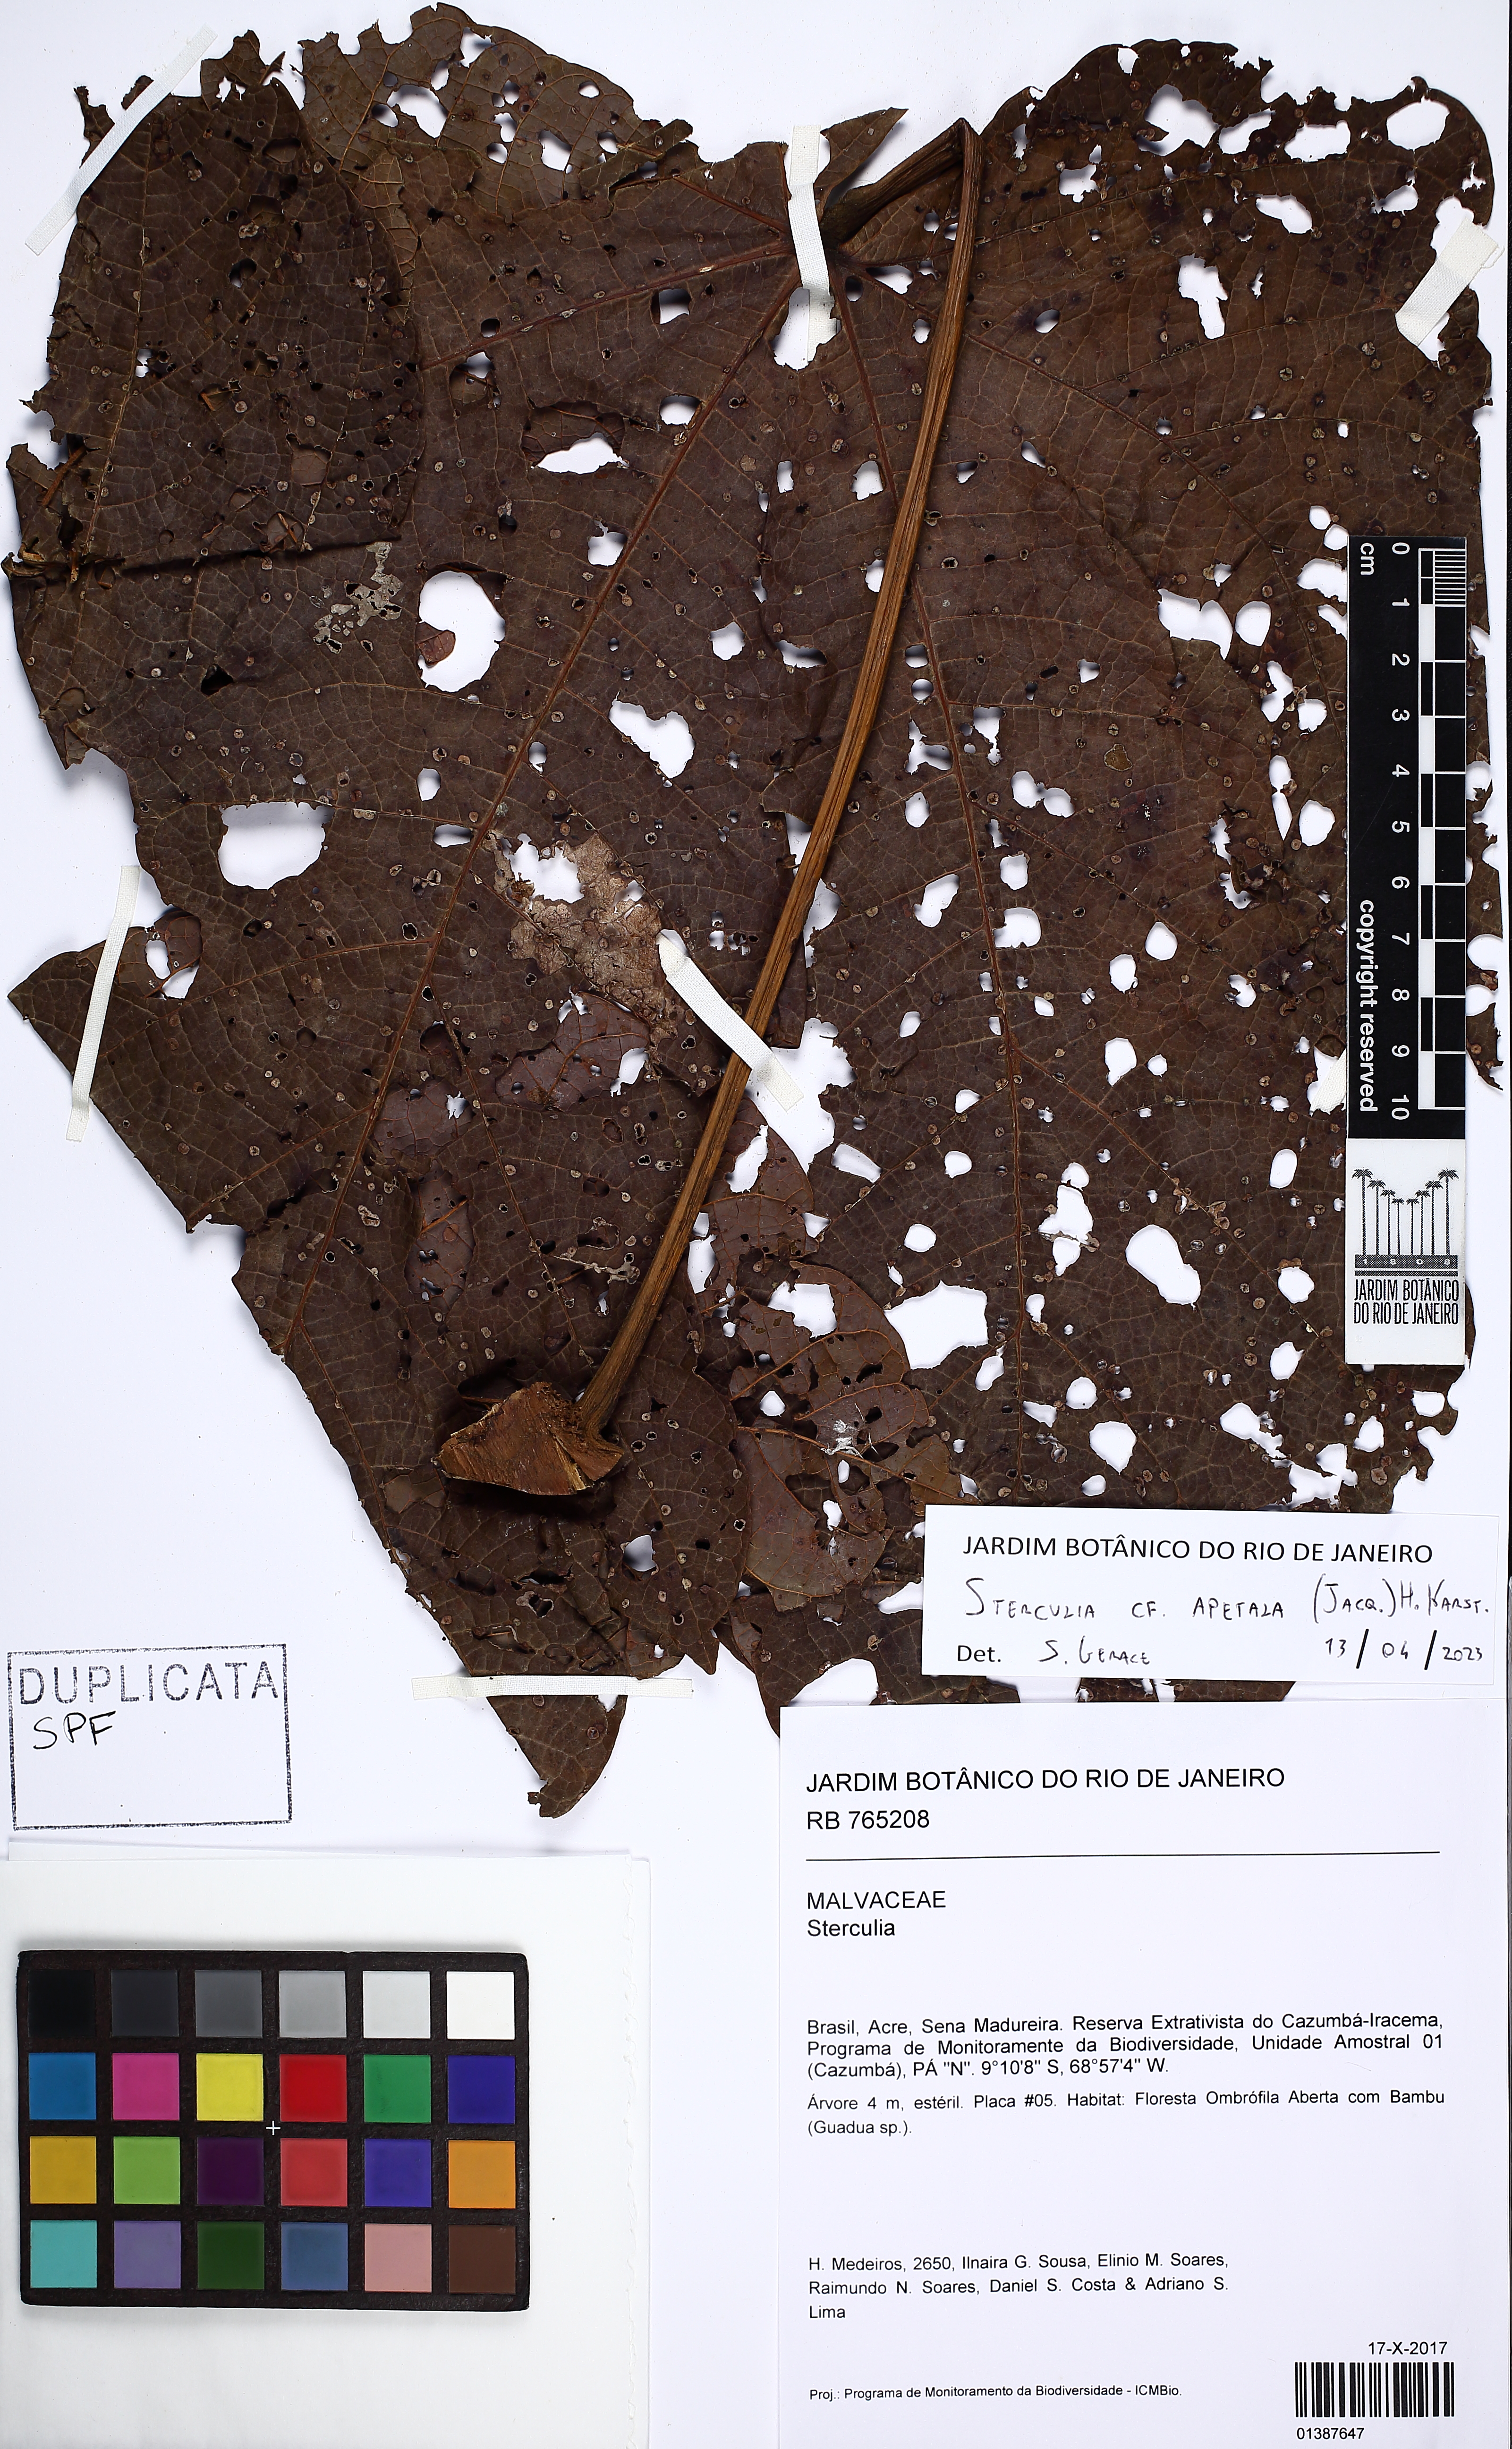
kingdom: Plantae
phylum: Tracheophyta
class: Magnoliopsida
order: Malvales
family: Malvaceae
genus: Sterculia
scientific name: Sterculia apetala
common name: Panama tree
